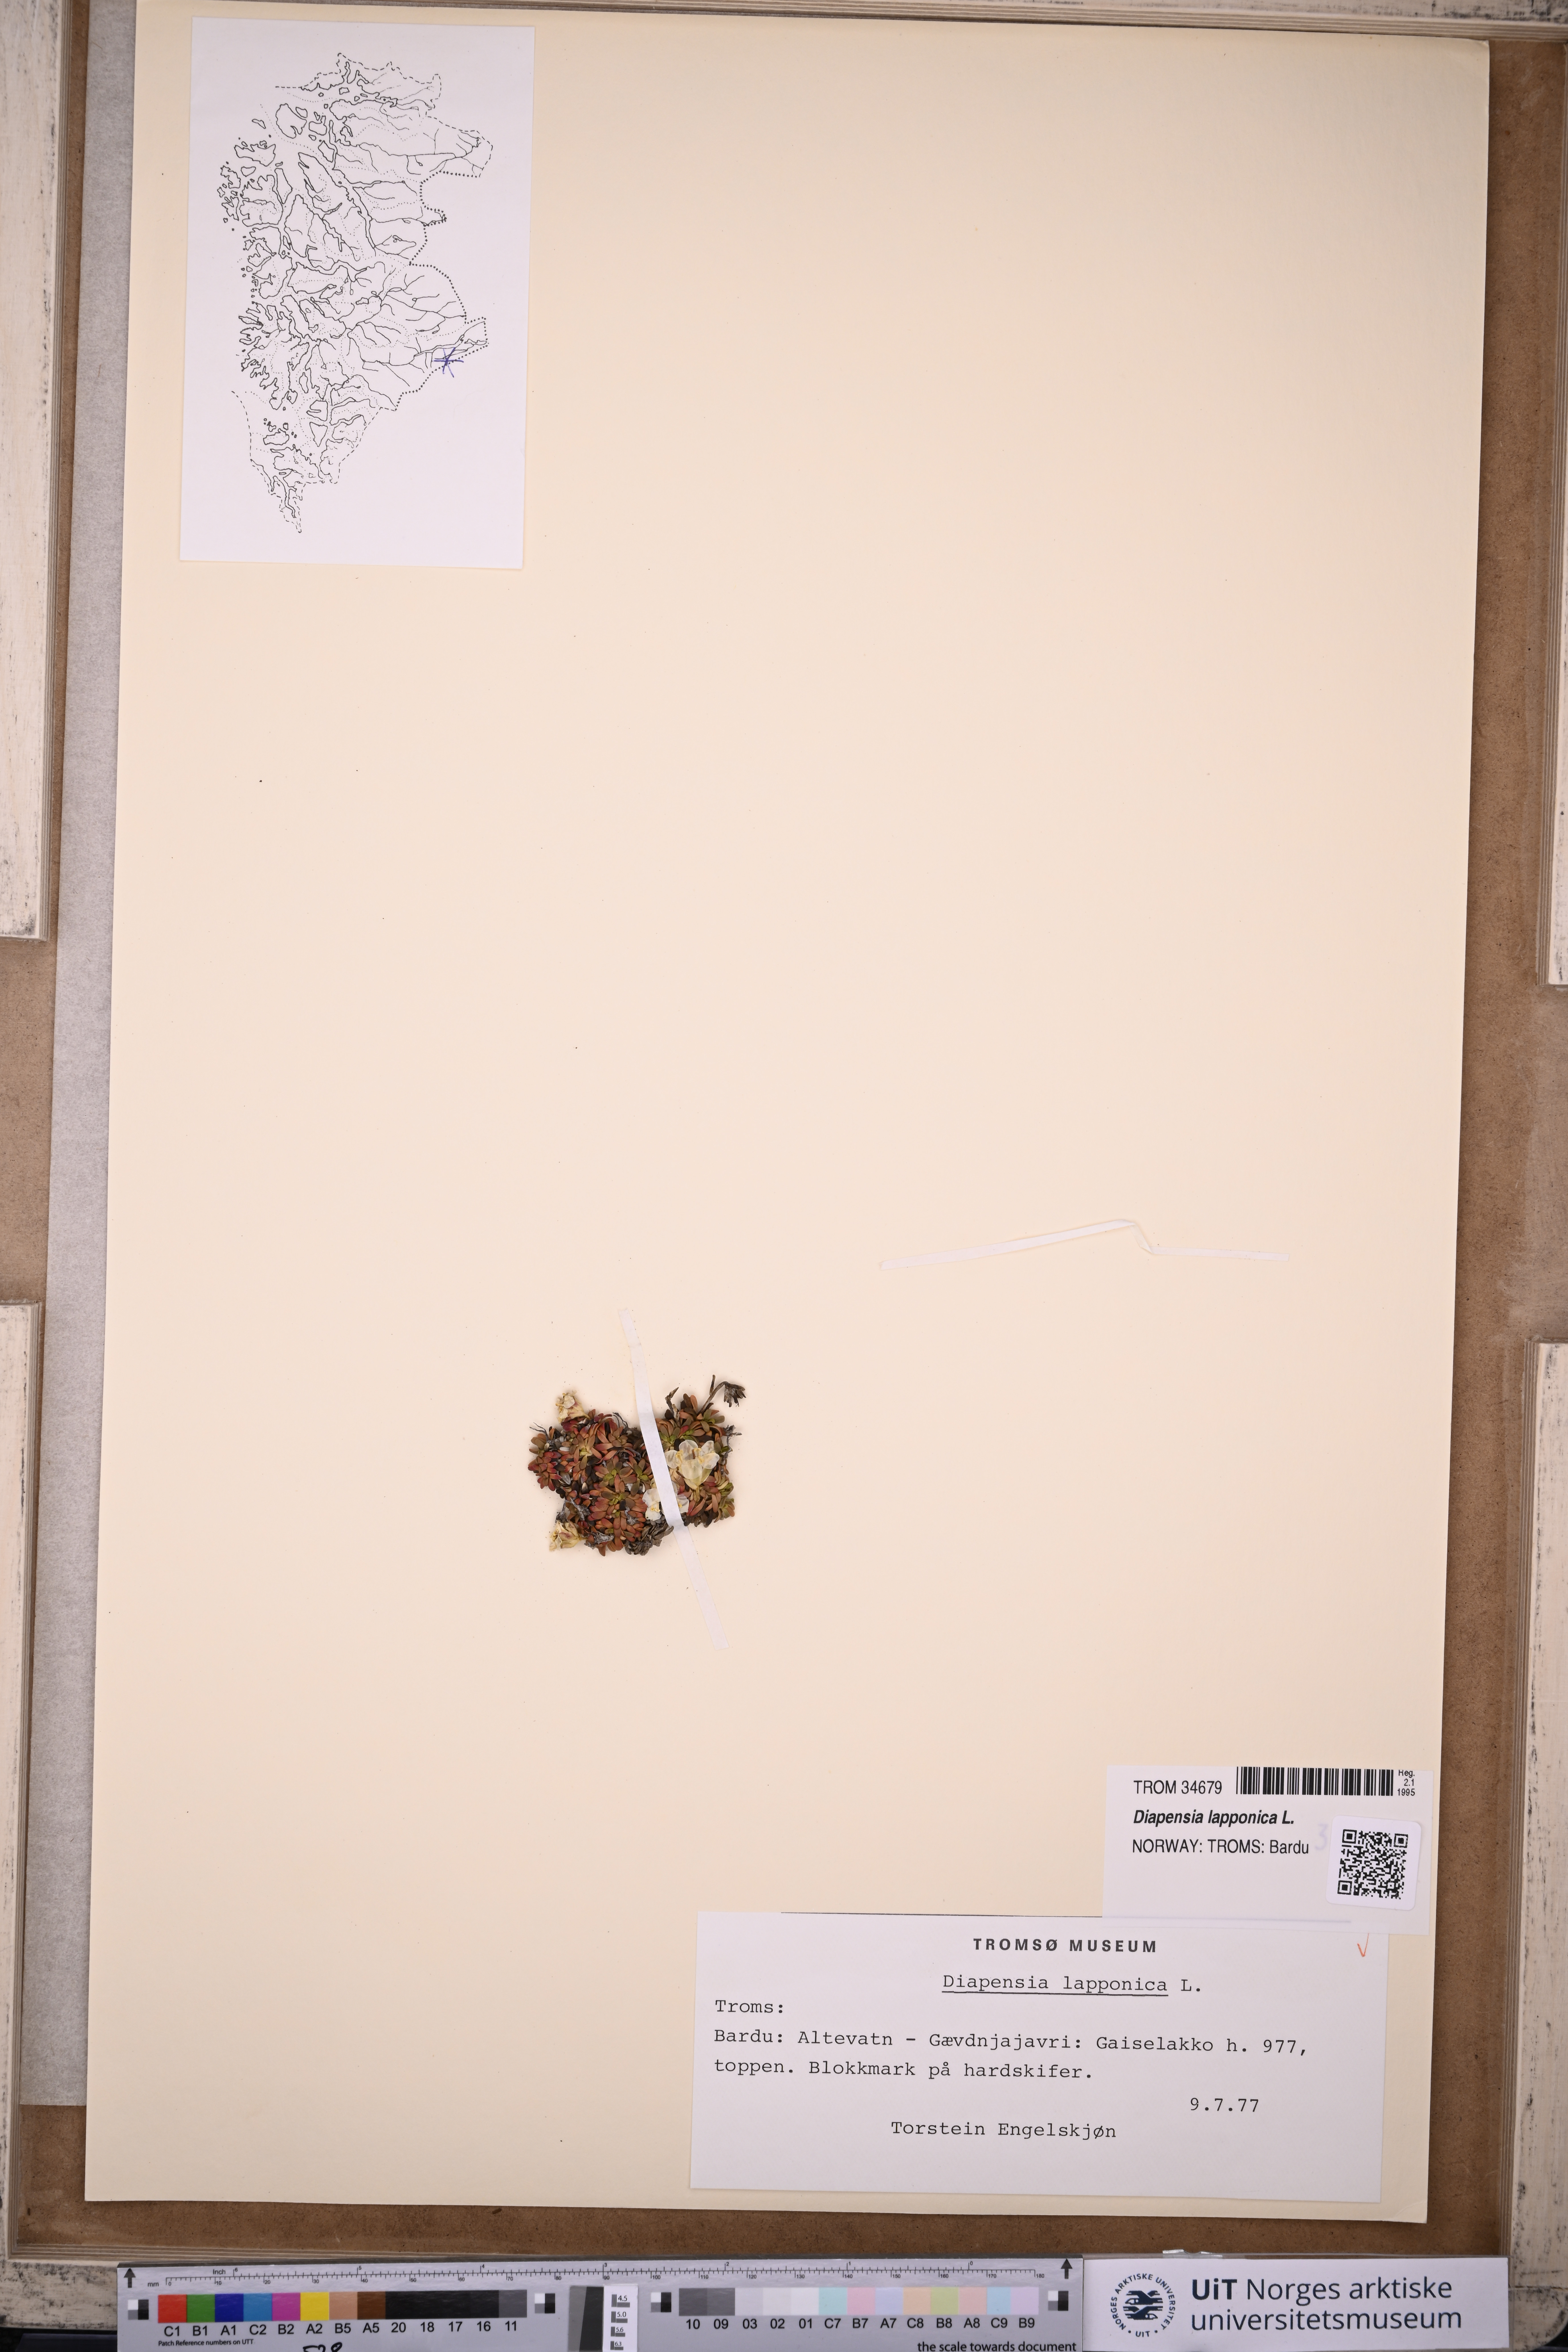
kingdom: Plantae
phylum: Tracheophyta
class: Magnoliopsida
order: Ericales
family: Diapensiaceae
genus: Diapensia
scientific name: Diapensia lapponica
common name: Diapensia
